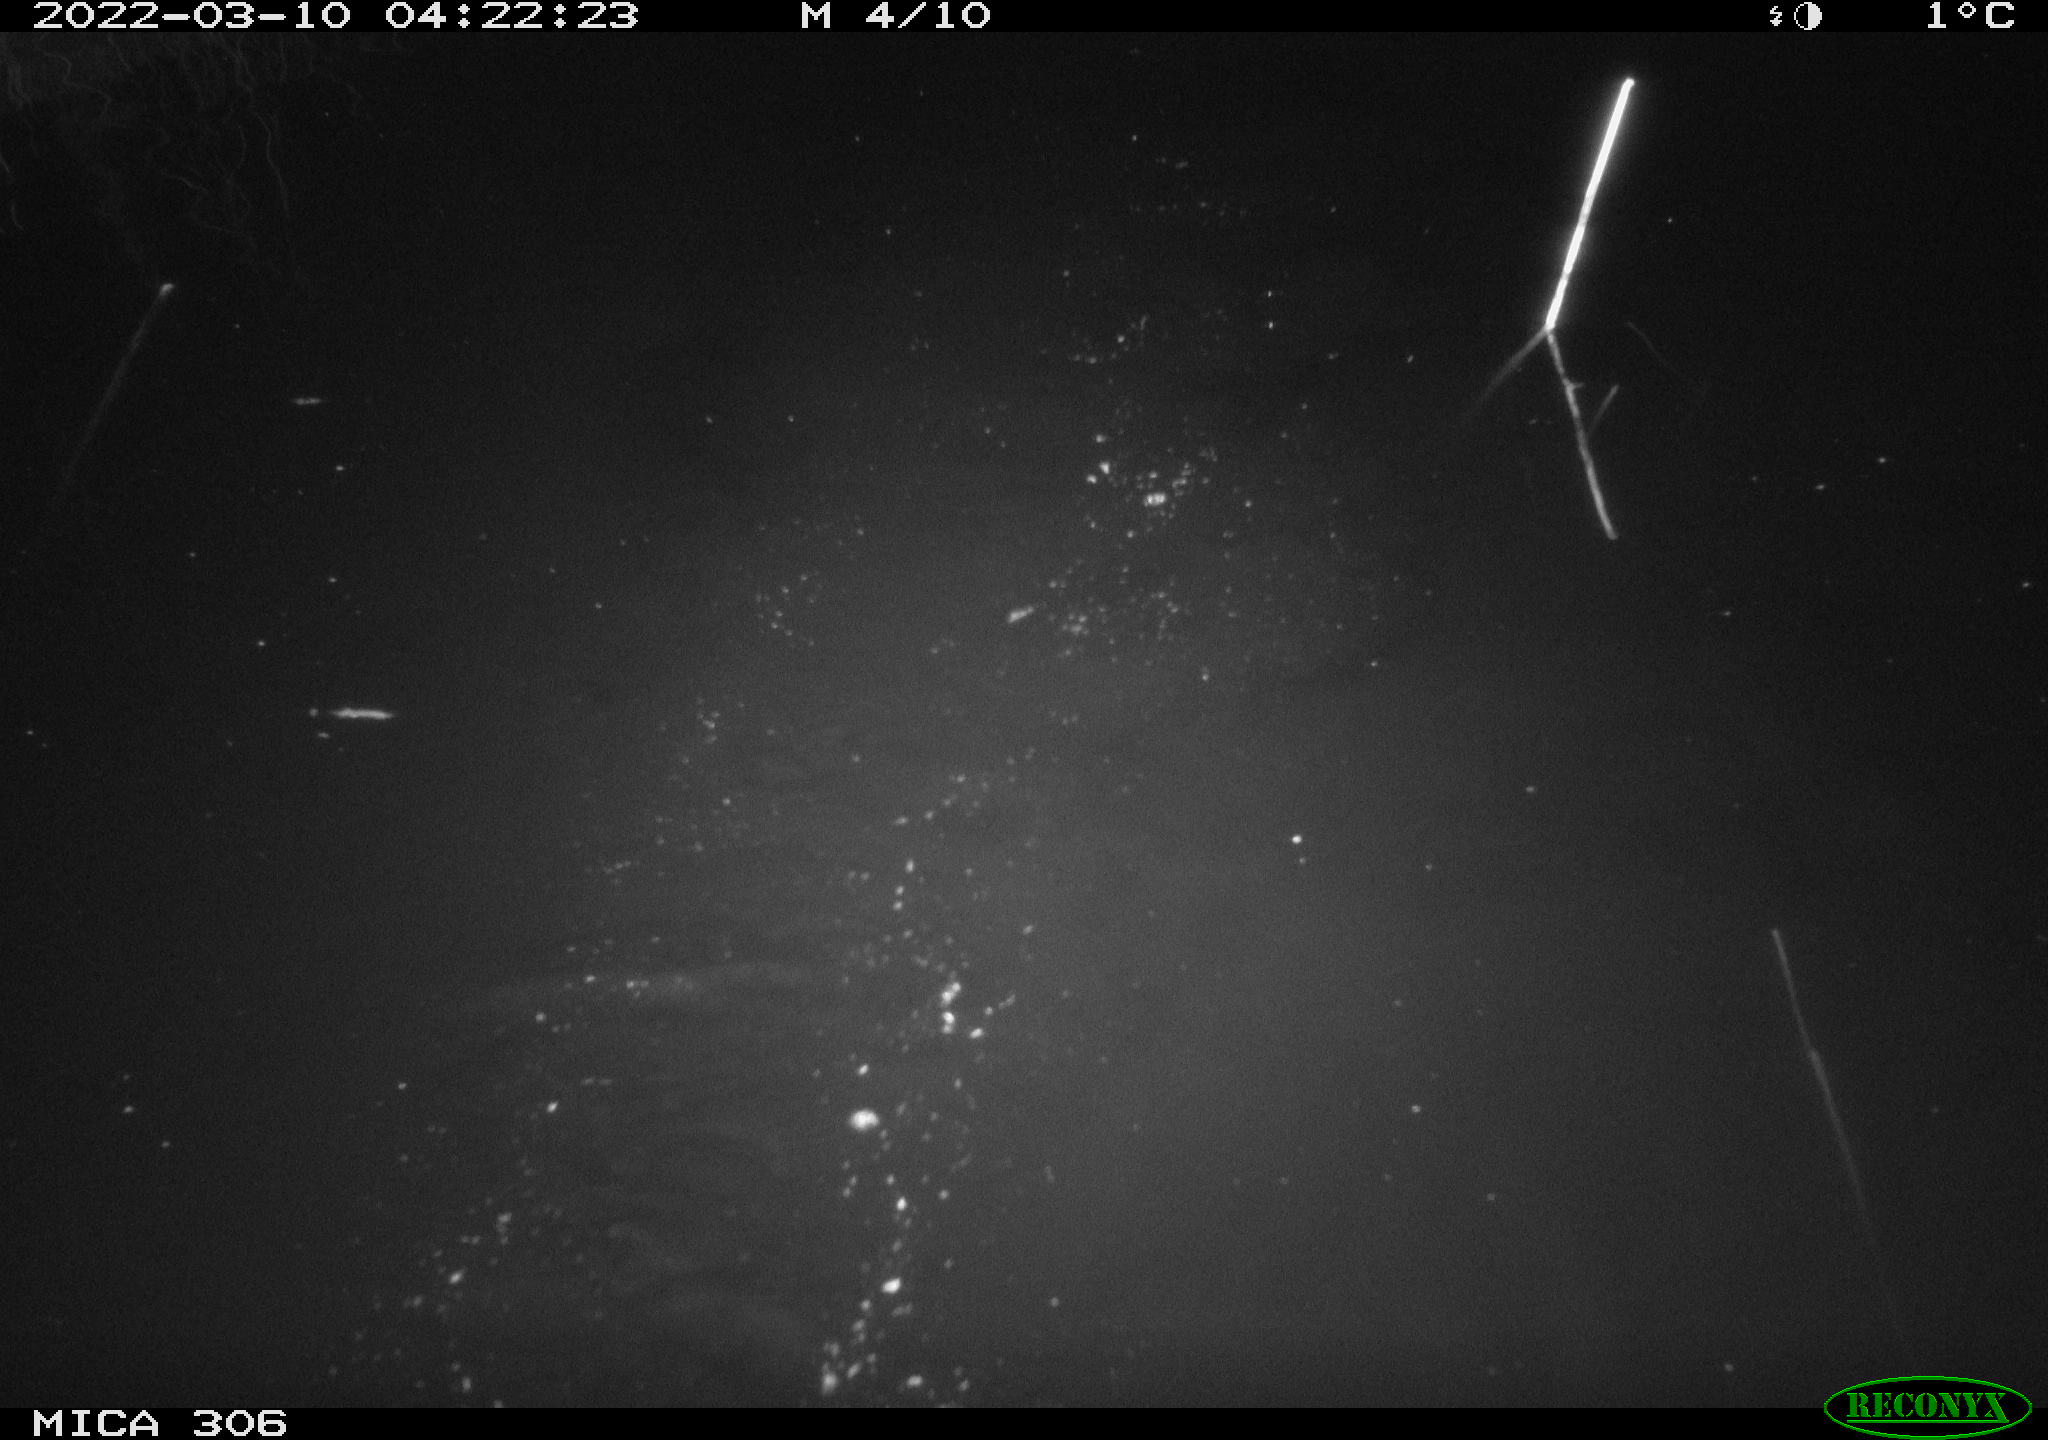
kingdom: Animalia
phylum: Chordata
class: Mammalia
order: Rodentia
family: Cricetidae
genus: Ondatra
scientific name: Ondatra zibethicus
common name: Muskrat
